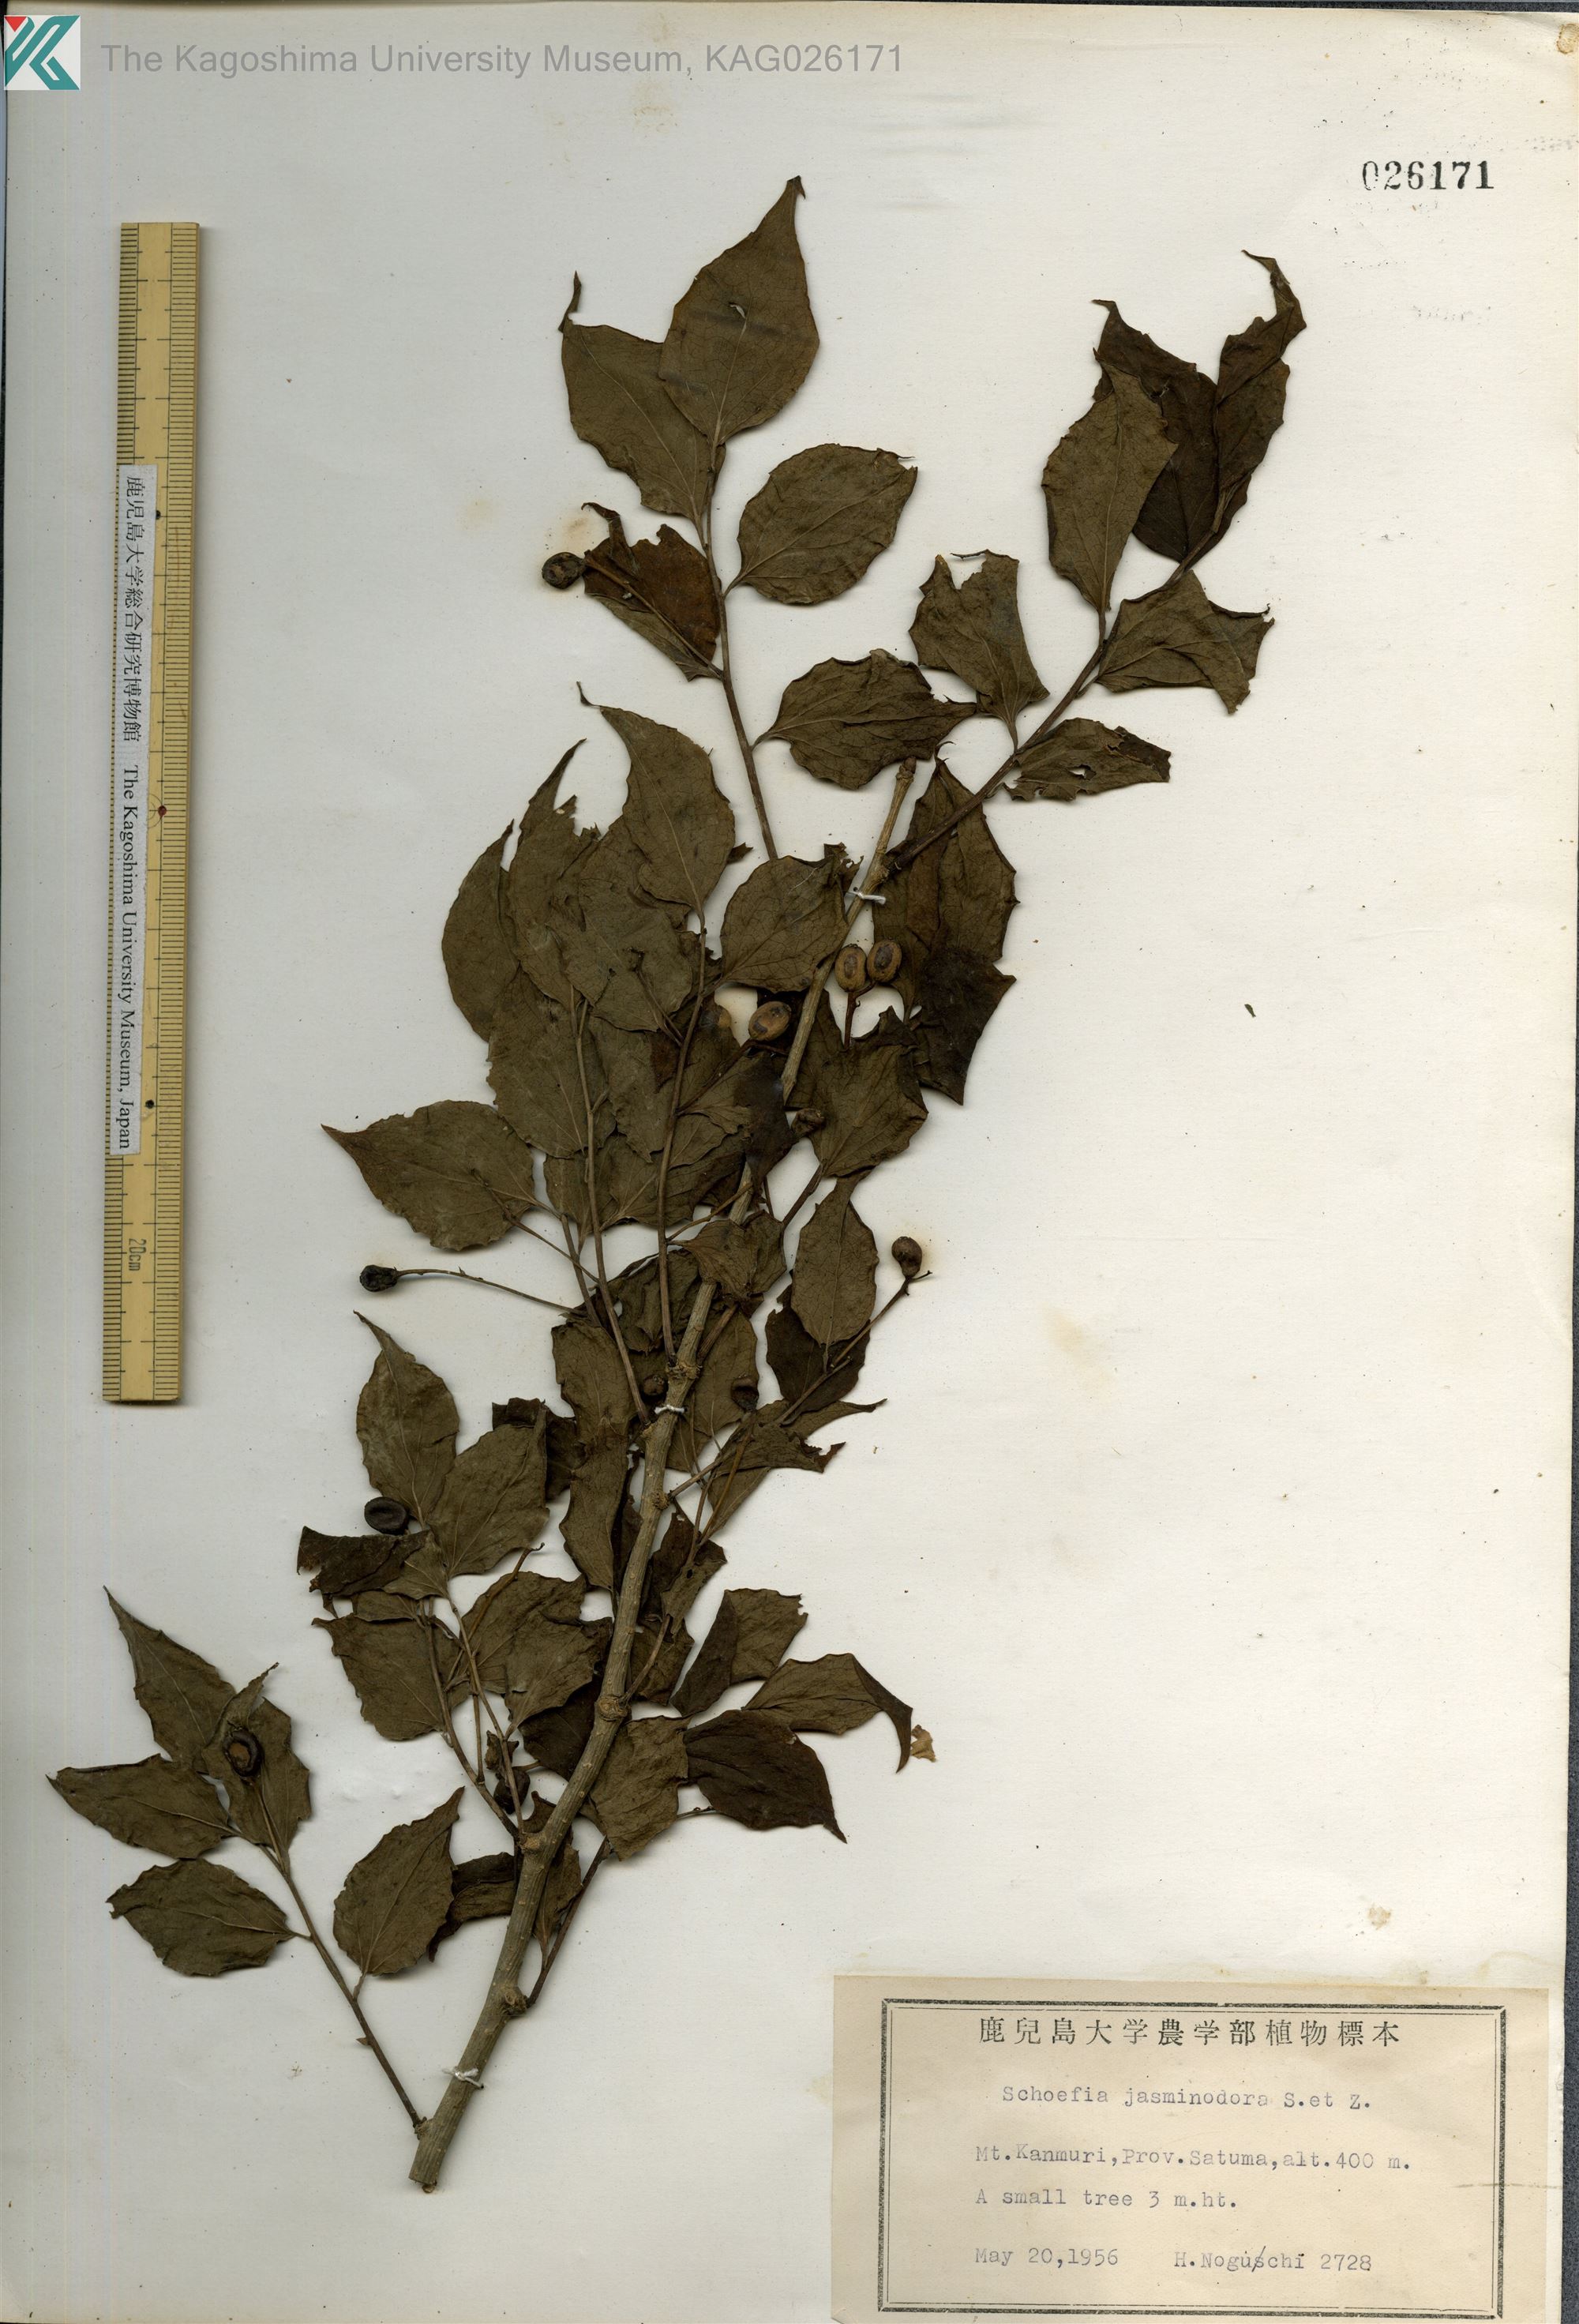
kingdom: Plantae
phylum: Tracheophyta
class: Magnoliopsida
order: Santalales
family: Schoepfiaceae
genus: Schoepfia
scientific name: Schoepfia jasminodora
